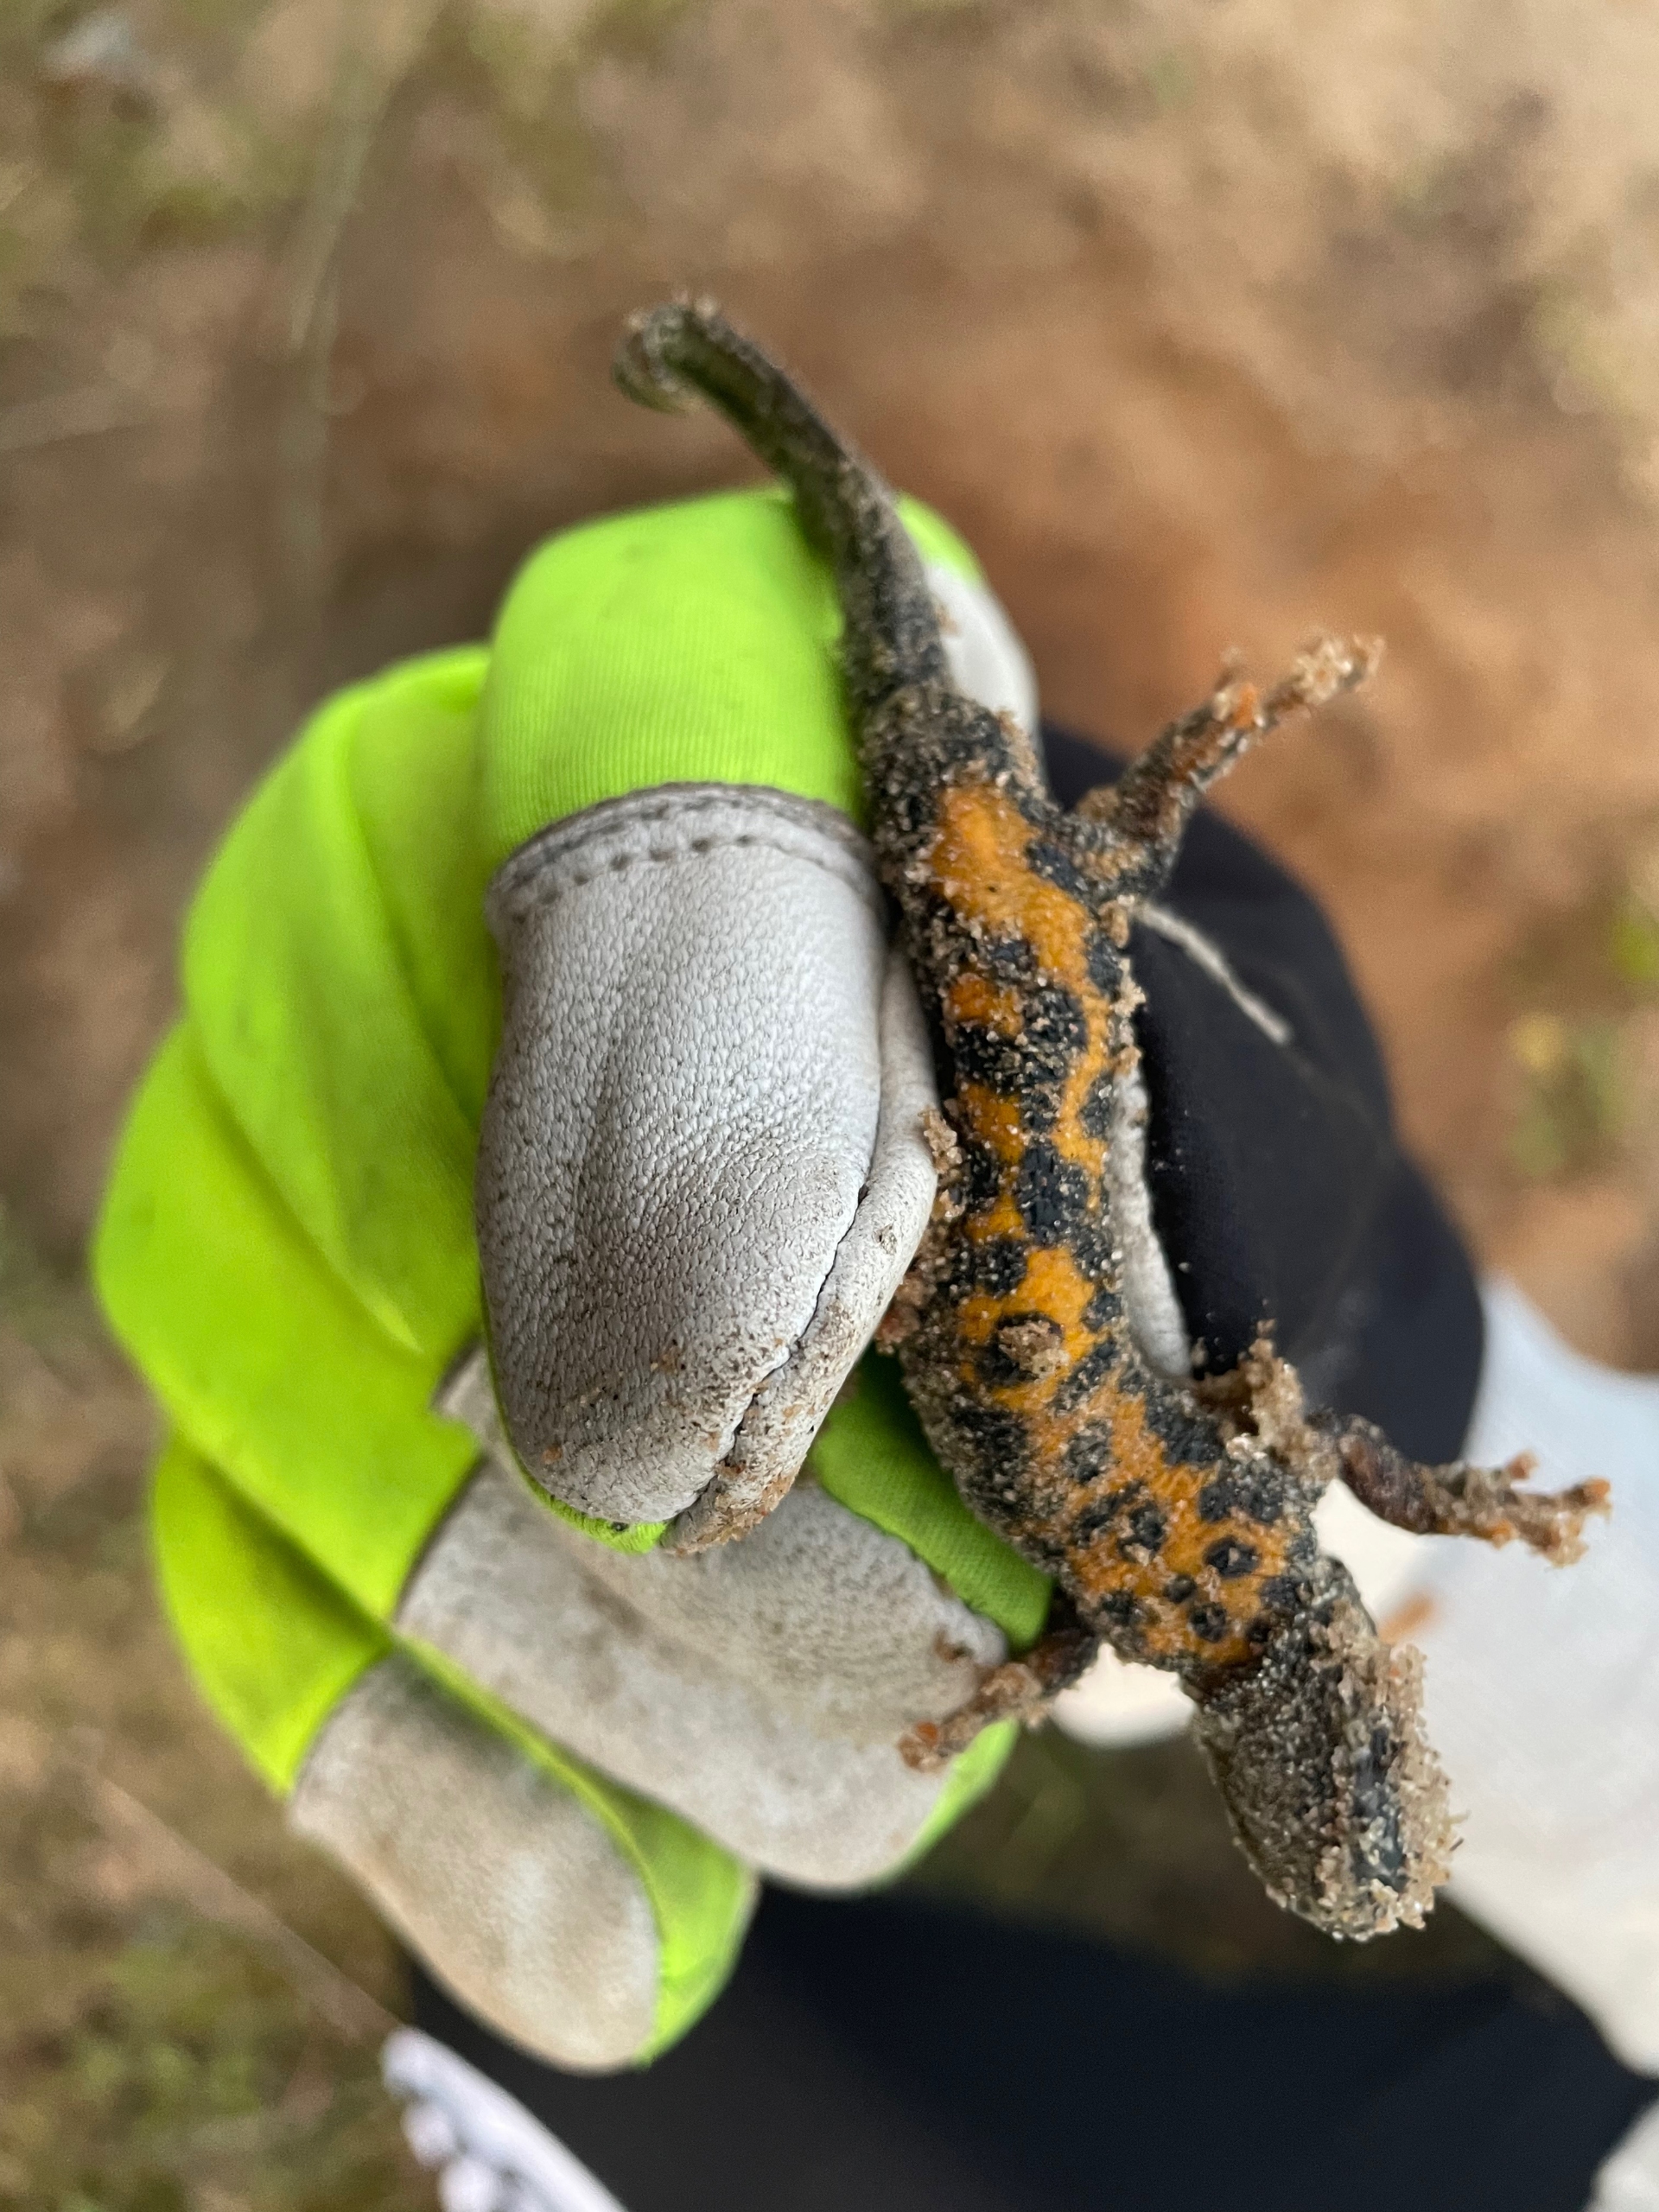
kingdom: Animalia
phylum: Chordata
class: Amphibia
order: Caudata
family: Salamandridae
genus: Triturus
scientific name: Triturus cristatus
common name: Stor vandsalamander
